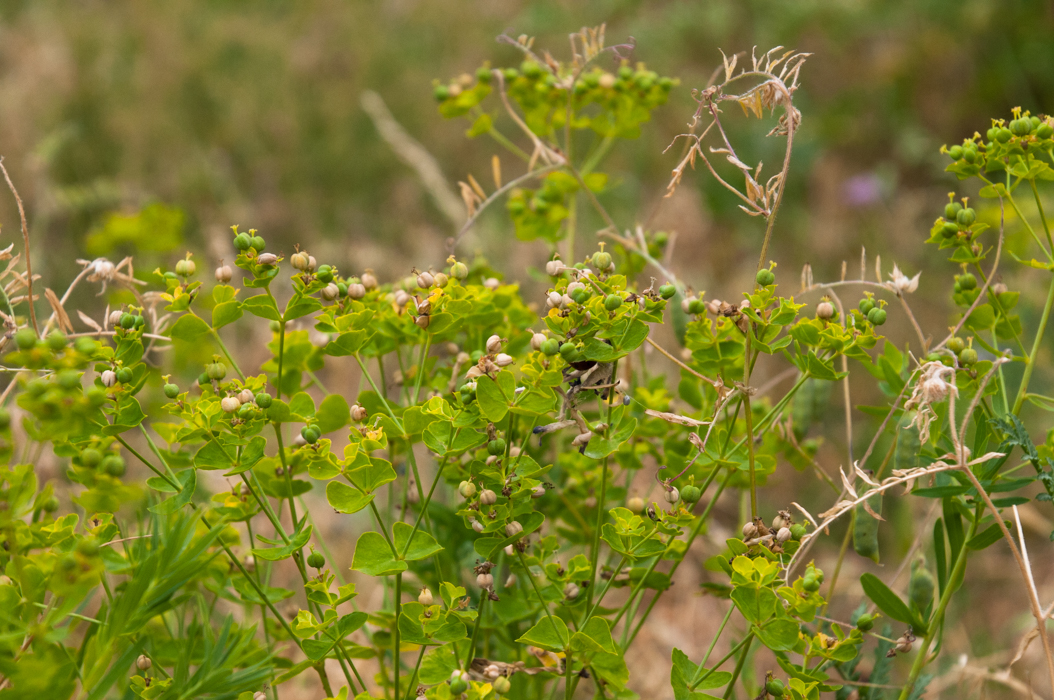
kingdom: Plantae
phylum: Tracheophyta
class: Magnoliopsida
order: Malpighiales
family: Euphorbiaceae
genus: Euphorbia
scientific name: Euphorbia esula
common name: Leafy spurge
